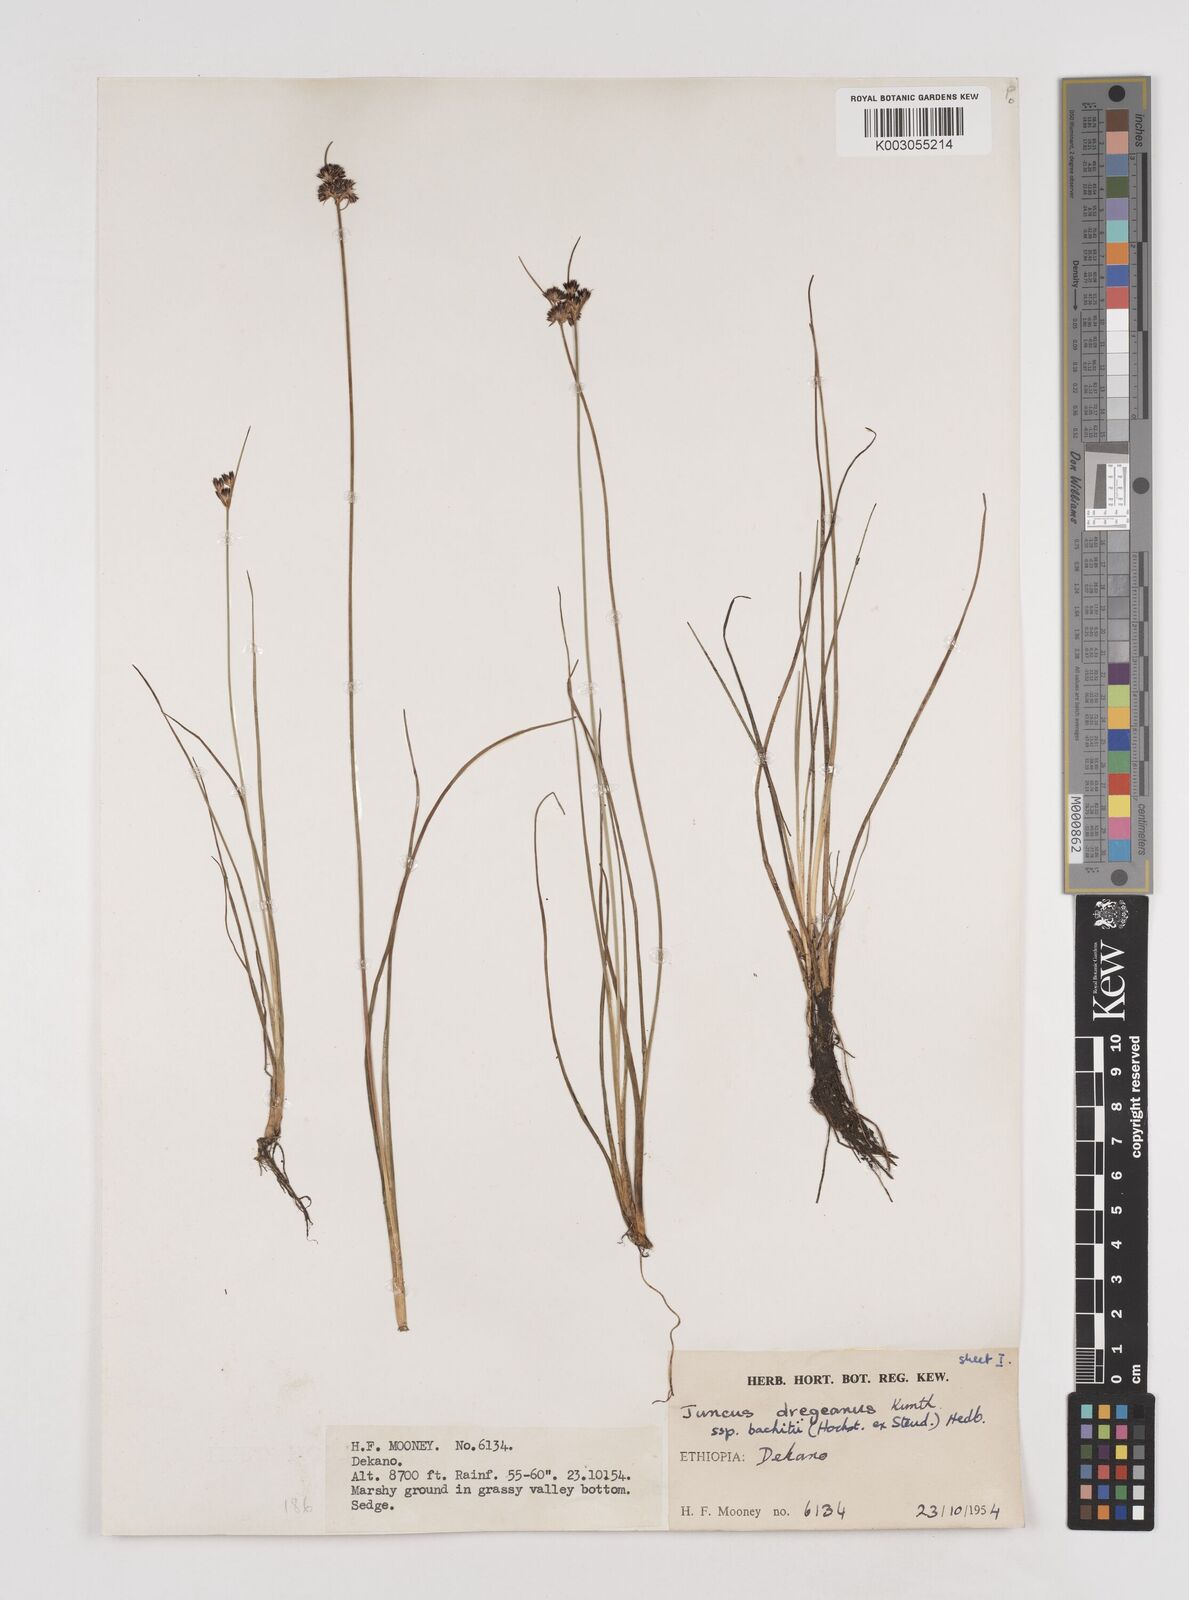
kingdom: Plantae
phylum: Tracheophyta
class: Liliopsida
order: Poales
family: Juncaceae
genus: Juncus
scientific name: Juncus dregeanus
